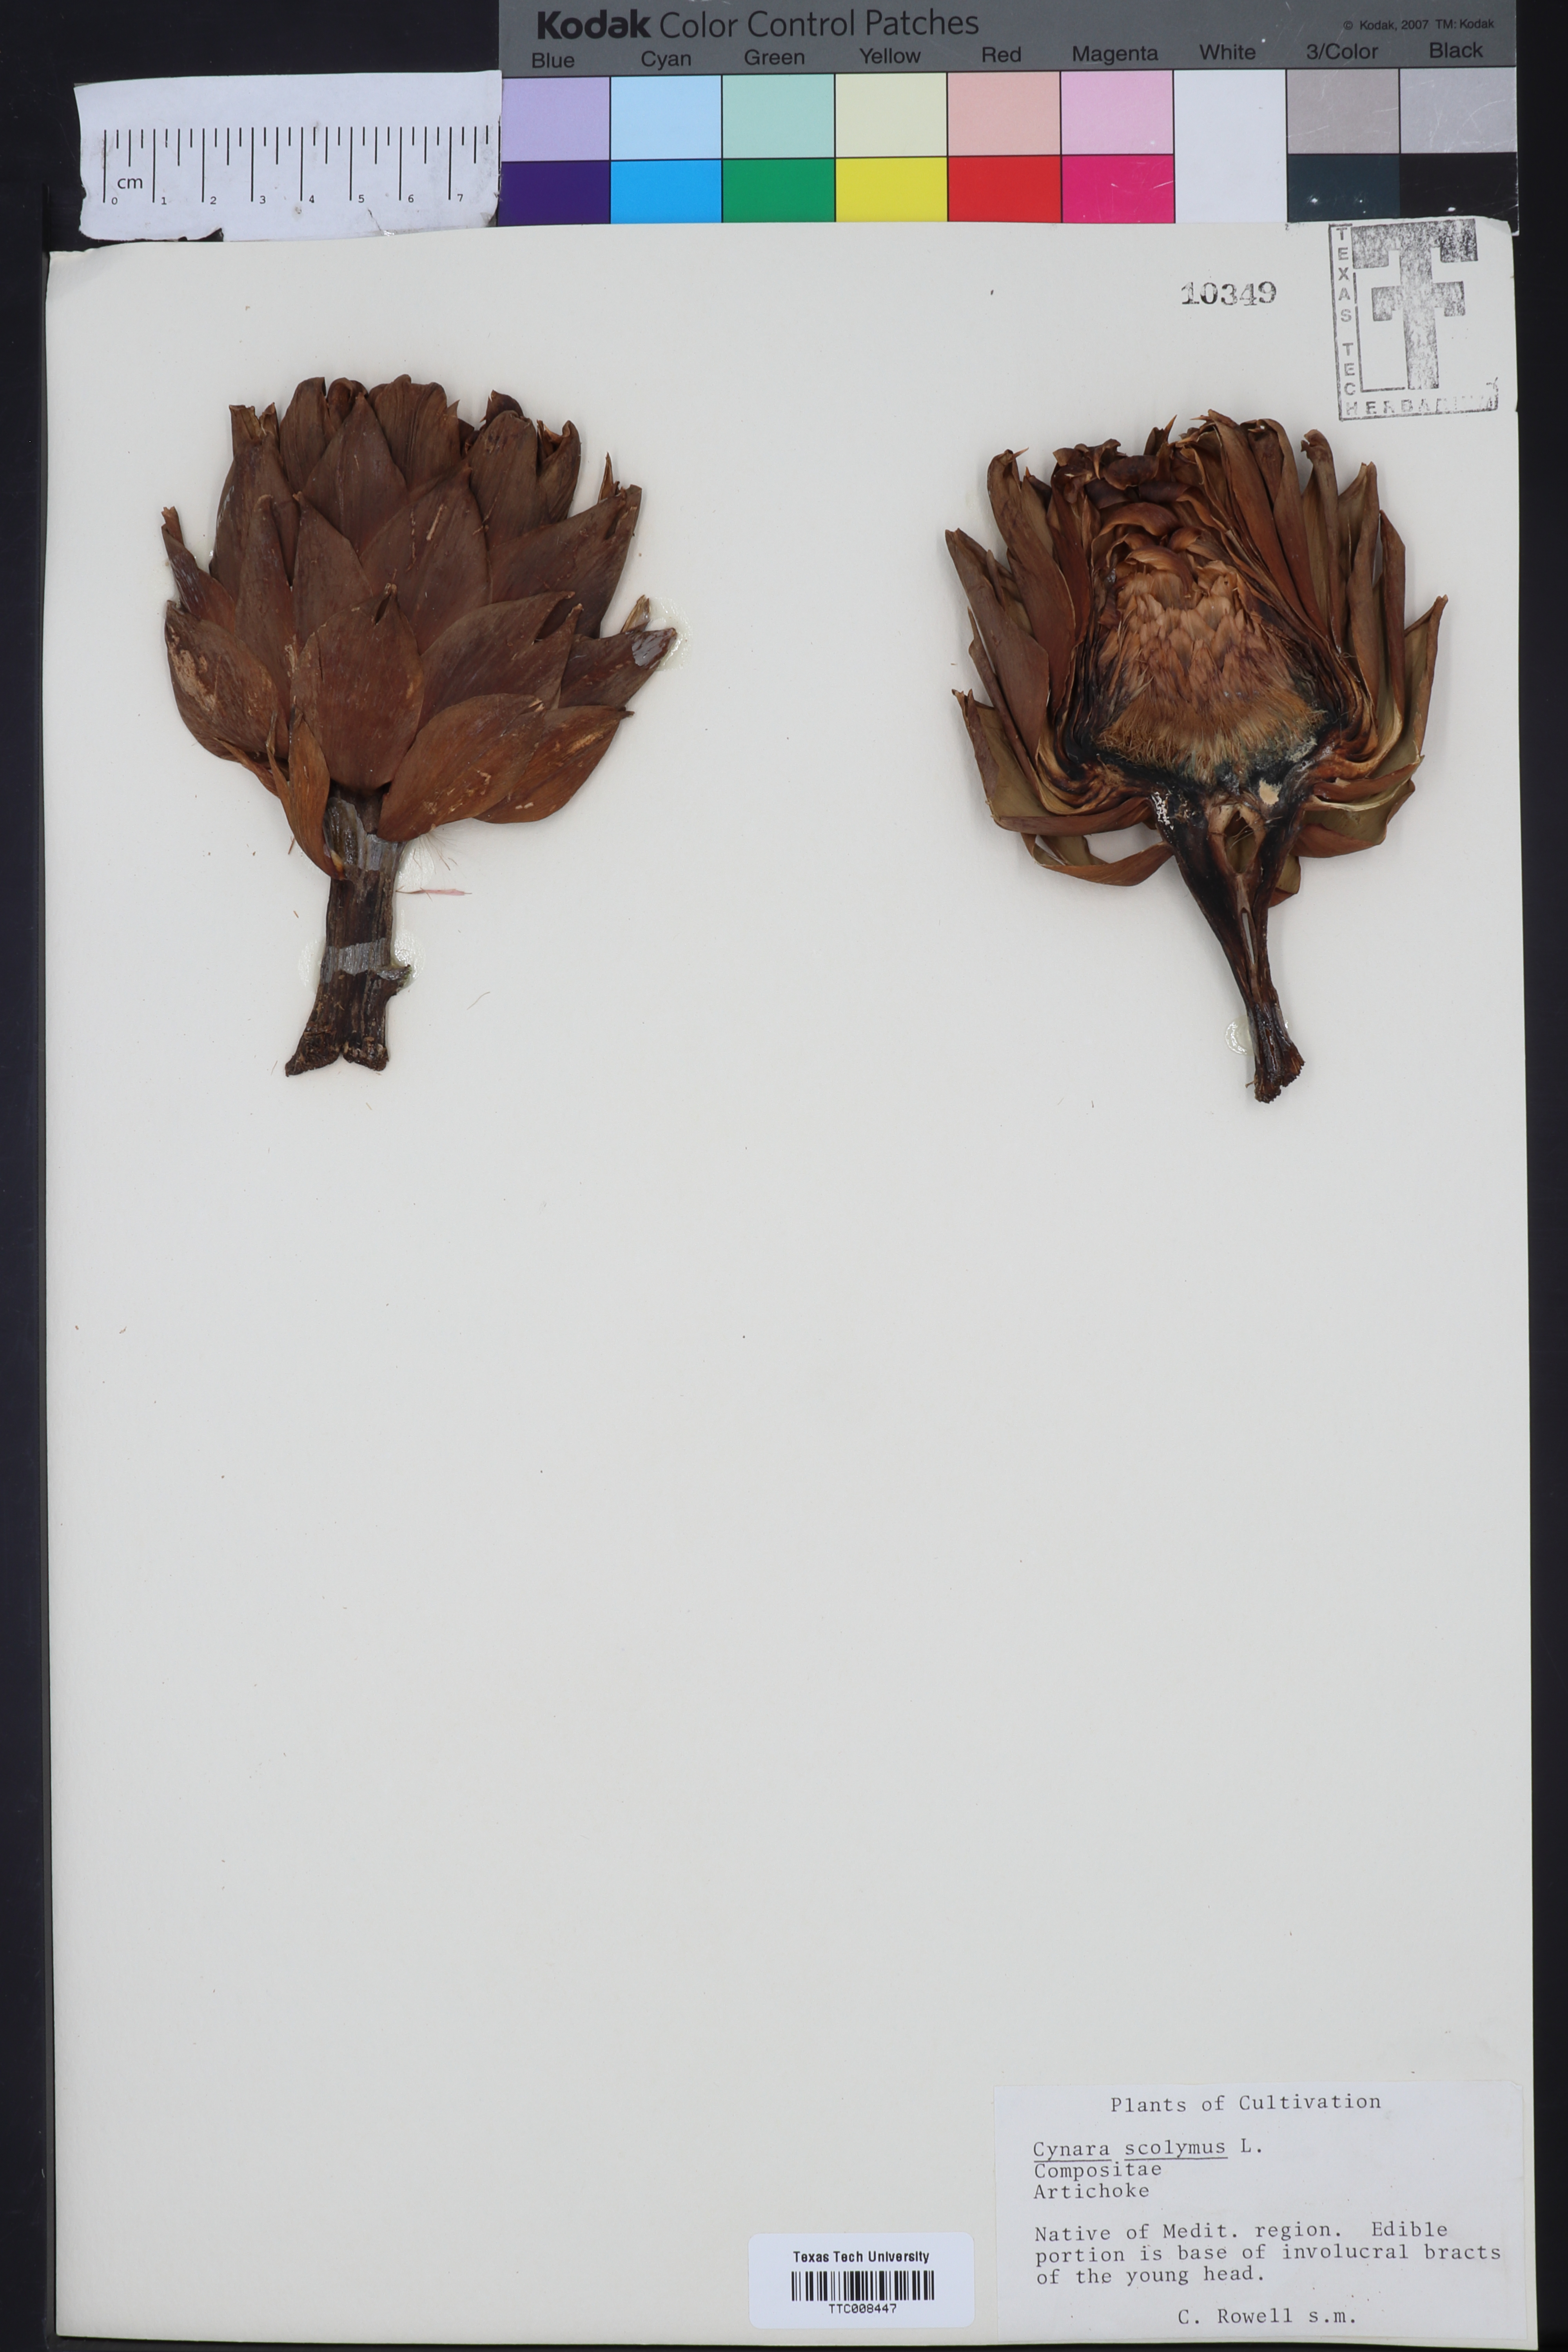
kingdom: Plantae
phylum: Tracheophyta
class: Magnoliopsida
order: Asterales
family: Asteraceae
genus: Cynara
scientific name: Cynara scolymus
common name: Globe artichoke
